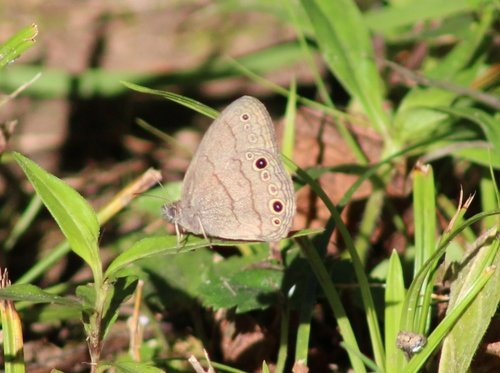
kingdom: Animalia
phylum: Arthropoda
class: Insecta
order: Lepidoptera
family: Nymphalidae
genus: Hermeuptychia
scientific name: Hermeuptychia hermes
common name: Carolina Satyr
